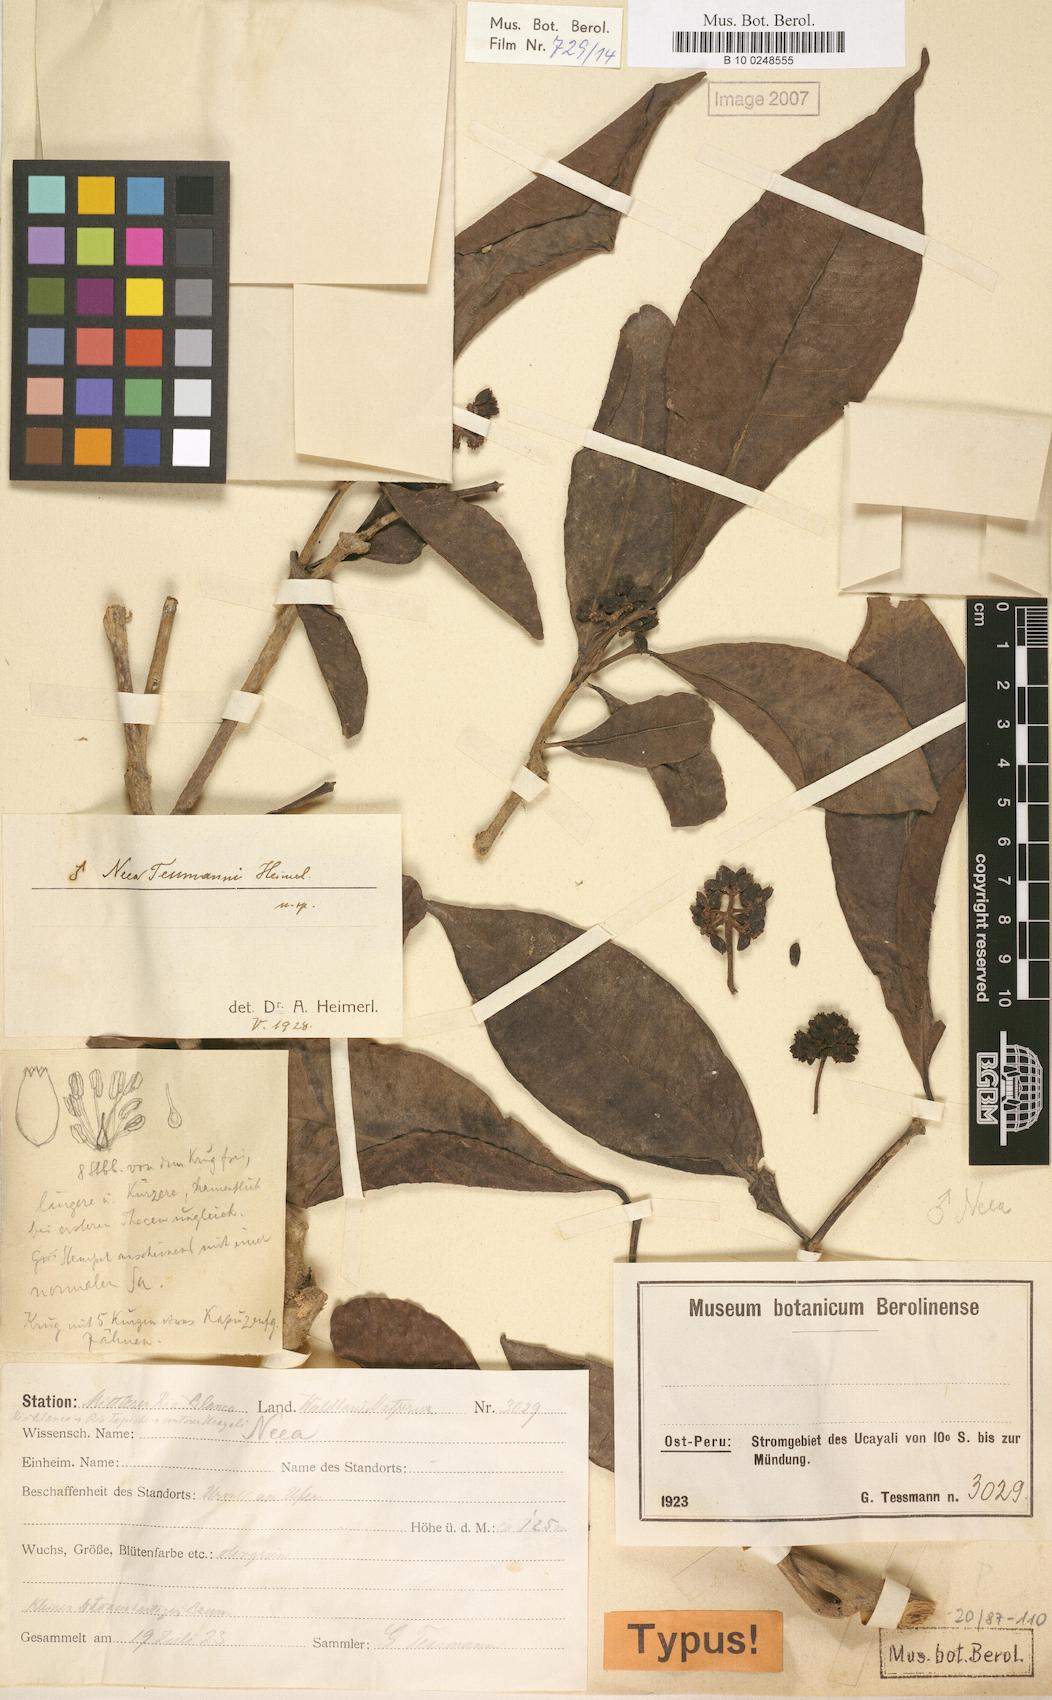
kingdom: Plantae
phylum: Tracheophyta
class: Magnoliopsida
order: Caryophyllales
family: Nyctaginaceae
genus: Neea
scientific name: Neea tessmannii
